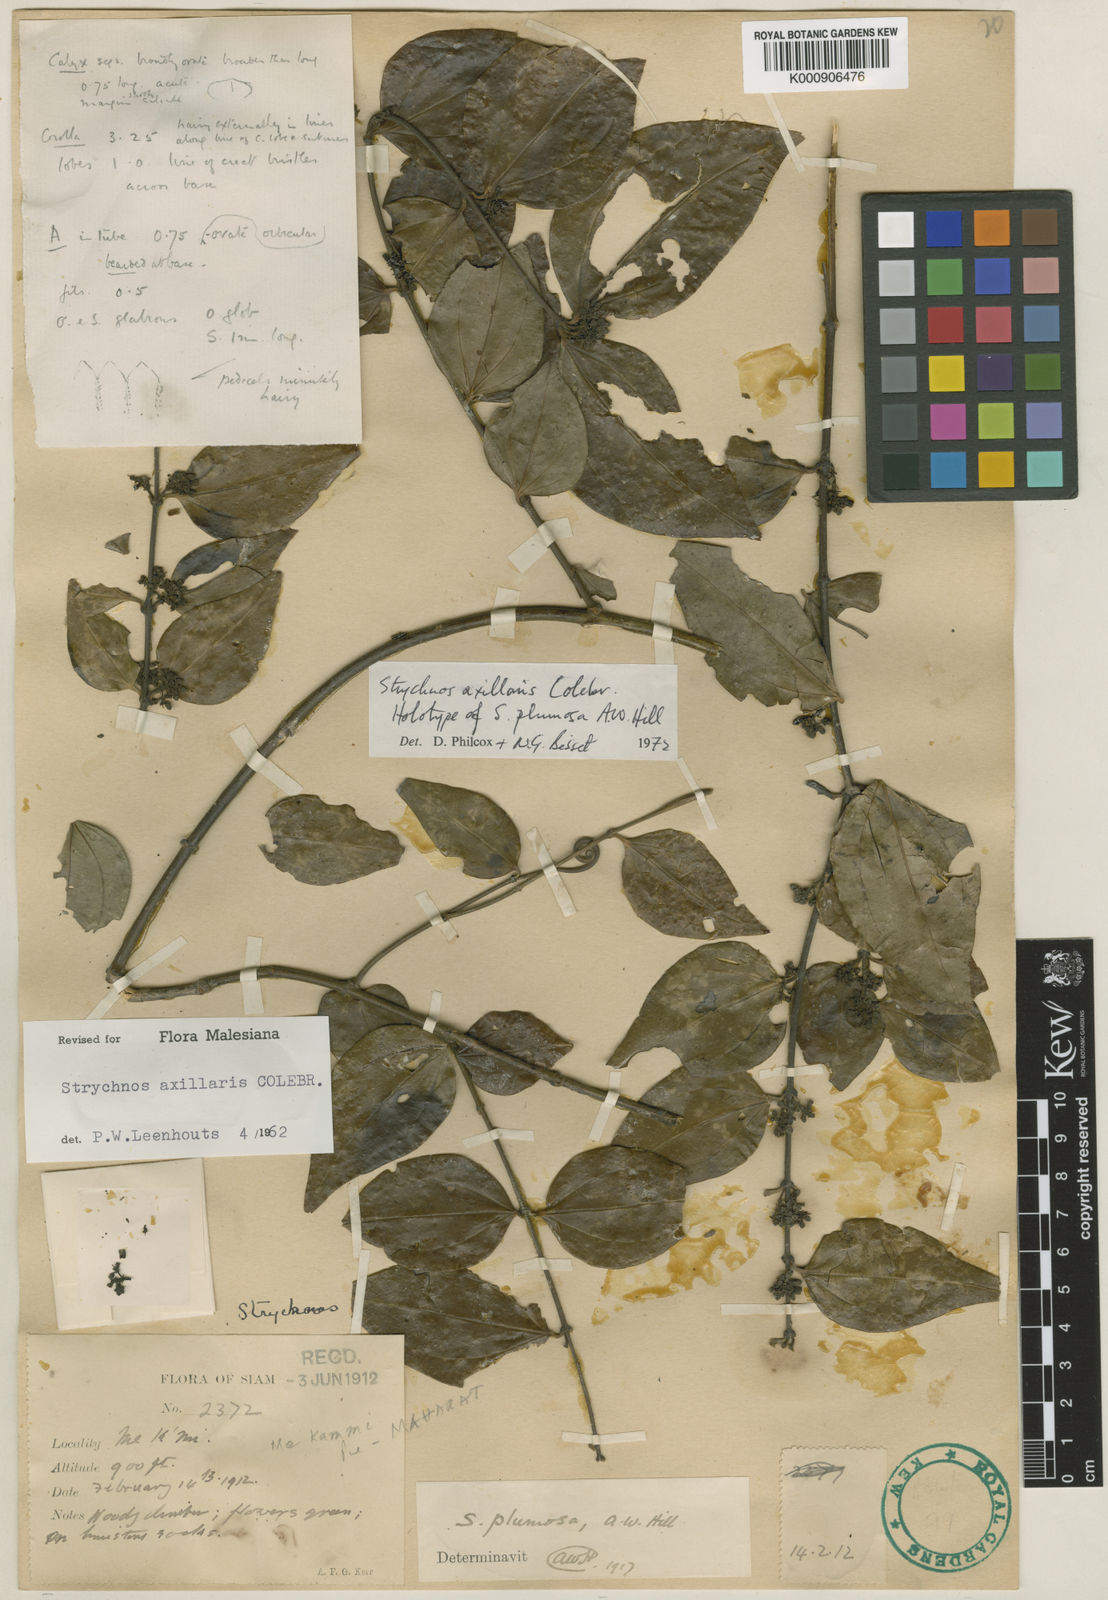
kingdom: Plantae
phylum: Tracheophyta
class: Magnoliopsida
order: Gentianales
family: Loganiaceae
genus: Strychnos
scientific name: Strychnos axillaris
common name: Strychninebush
